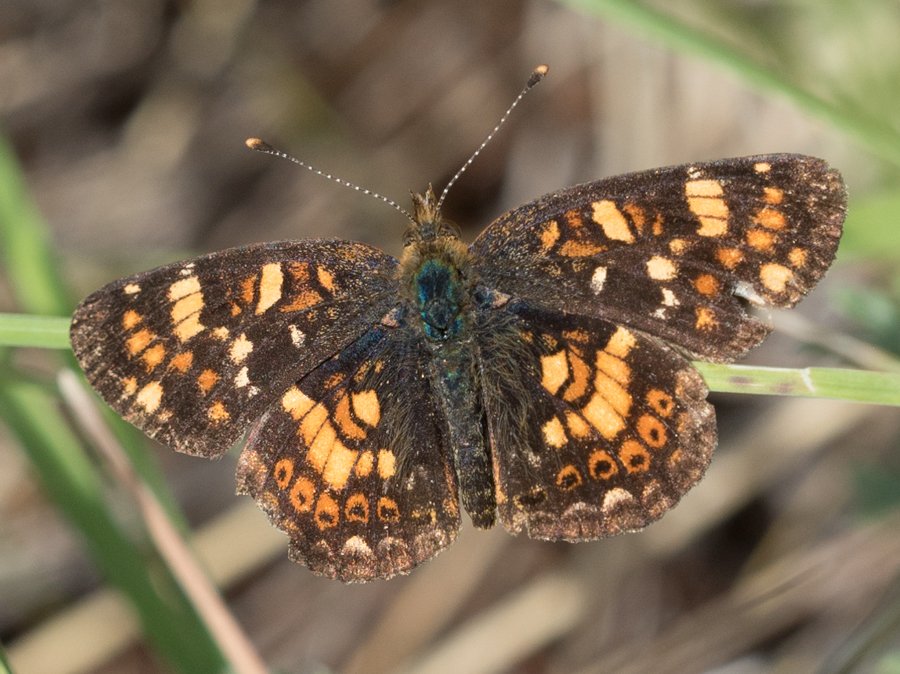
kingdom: Animalia
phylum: Arthropoda
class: Insecta
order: Lepidoptera
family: Nymphalidae
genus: Phyciodes
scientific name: Phyciodes tharos
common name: Field Crescent
